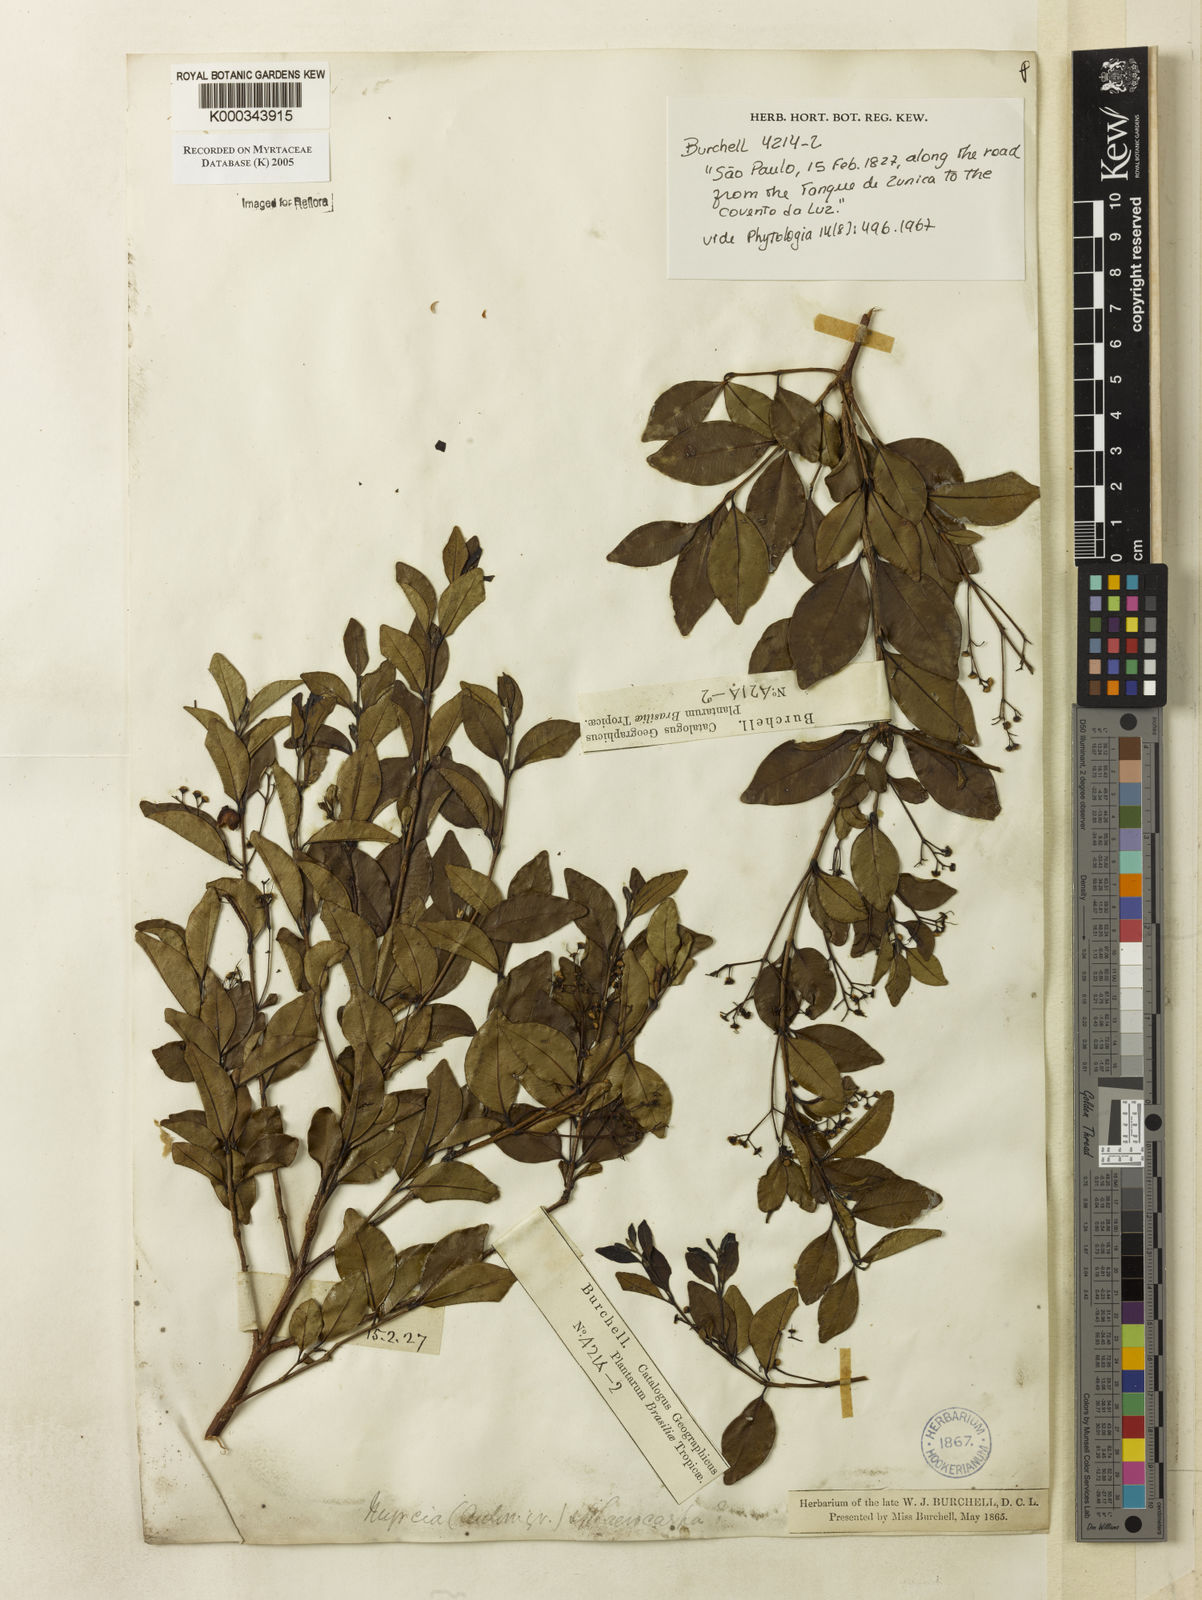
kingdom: Plantae
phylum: Tracheophyta
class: Magnoliopsida
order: Myrtales
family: Myrtaceae
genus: Myrcia
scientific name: Myrcia multiflora
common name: Pedra hume
